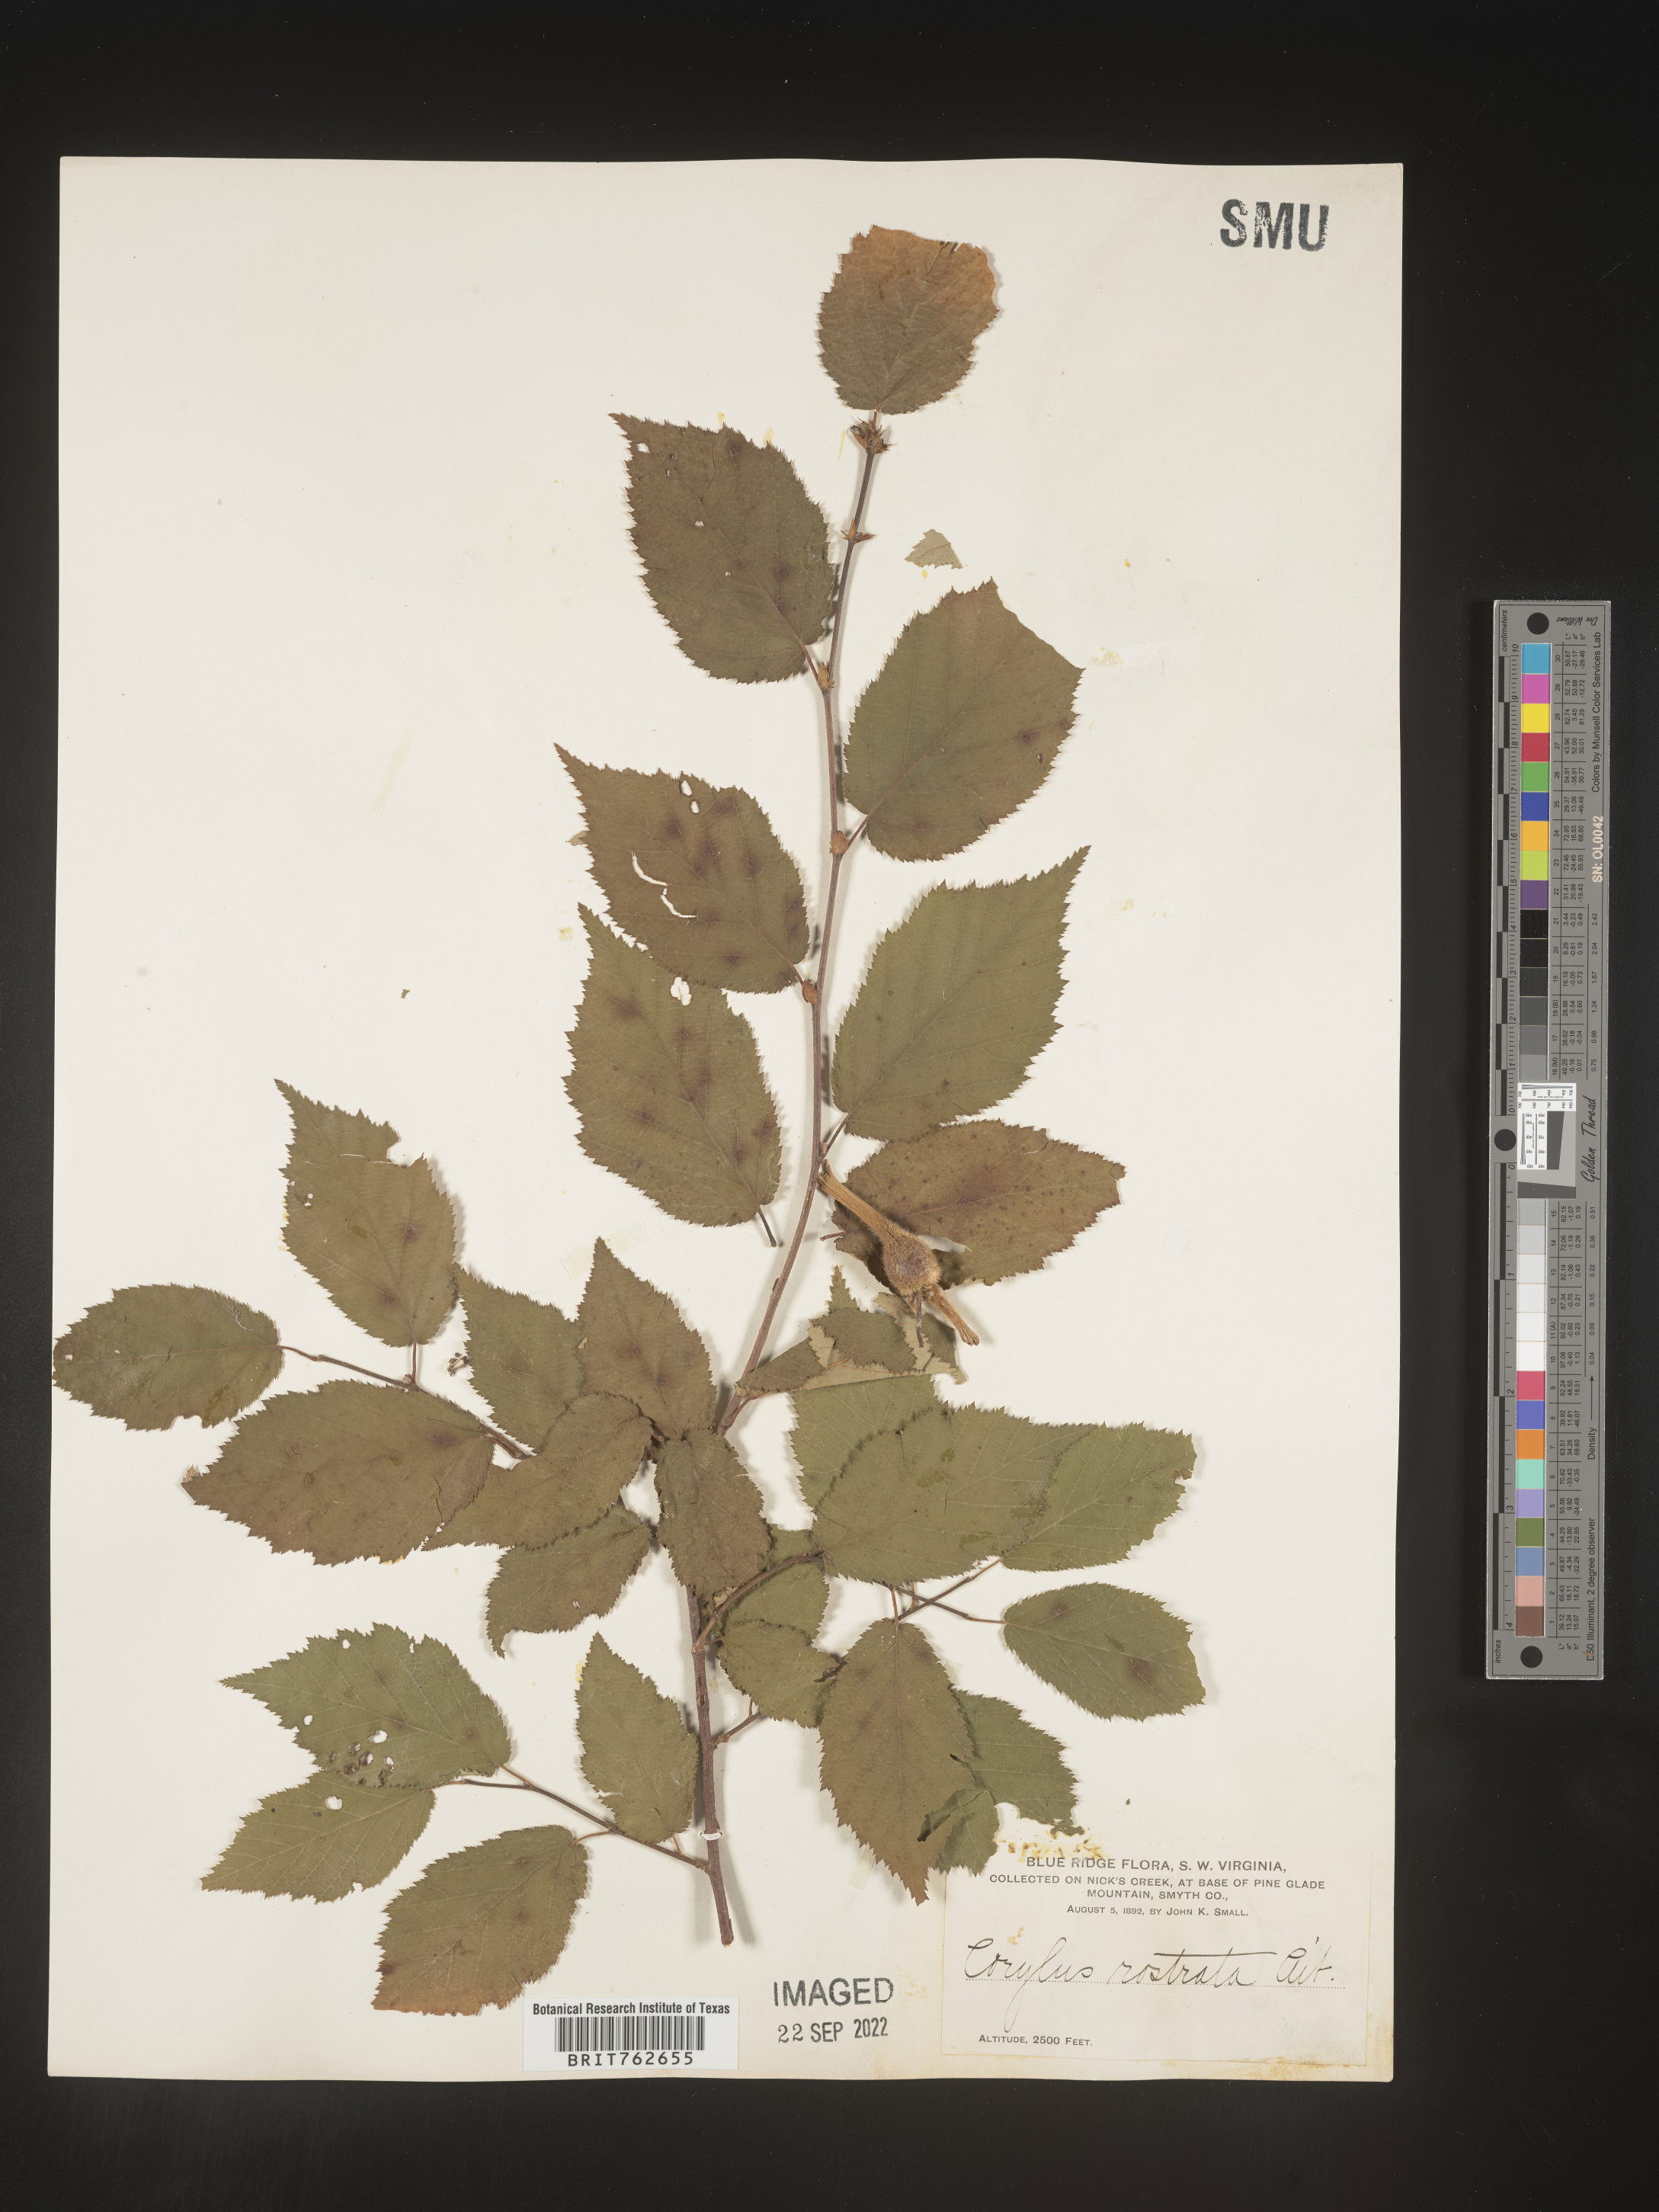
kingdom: Plantae
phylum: Tracheophyta
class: Magnoliopsida
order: Fagales
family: Betulaceae
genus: Corylus
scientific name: Corylus cornuta
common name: Beaked hazel
